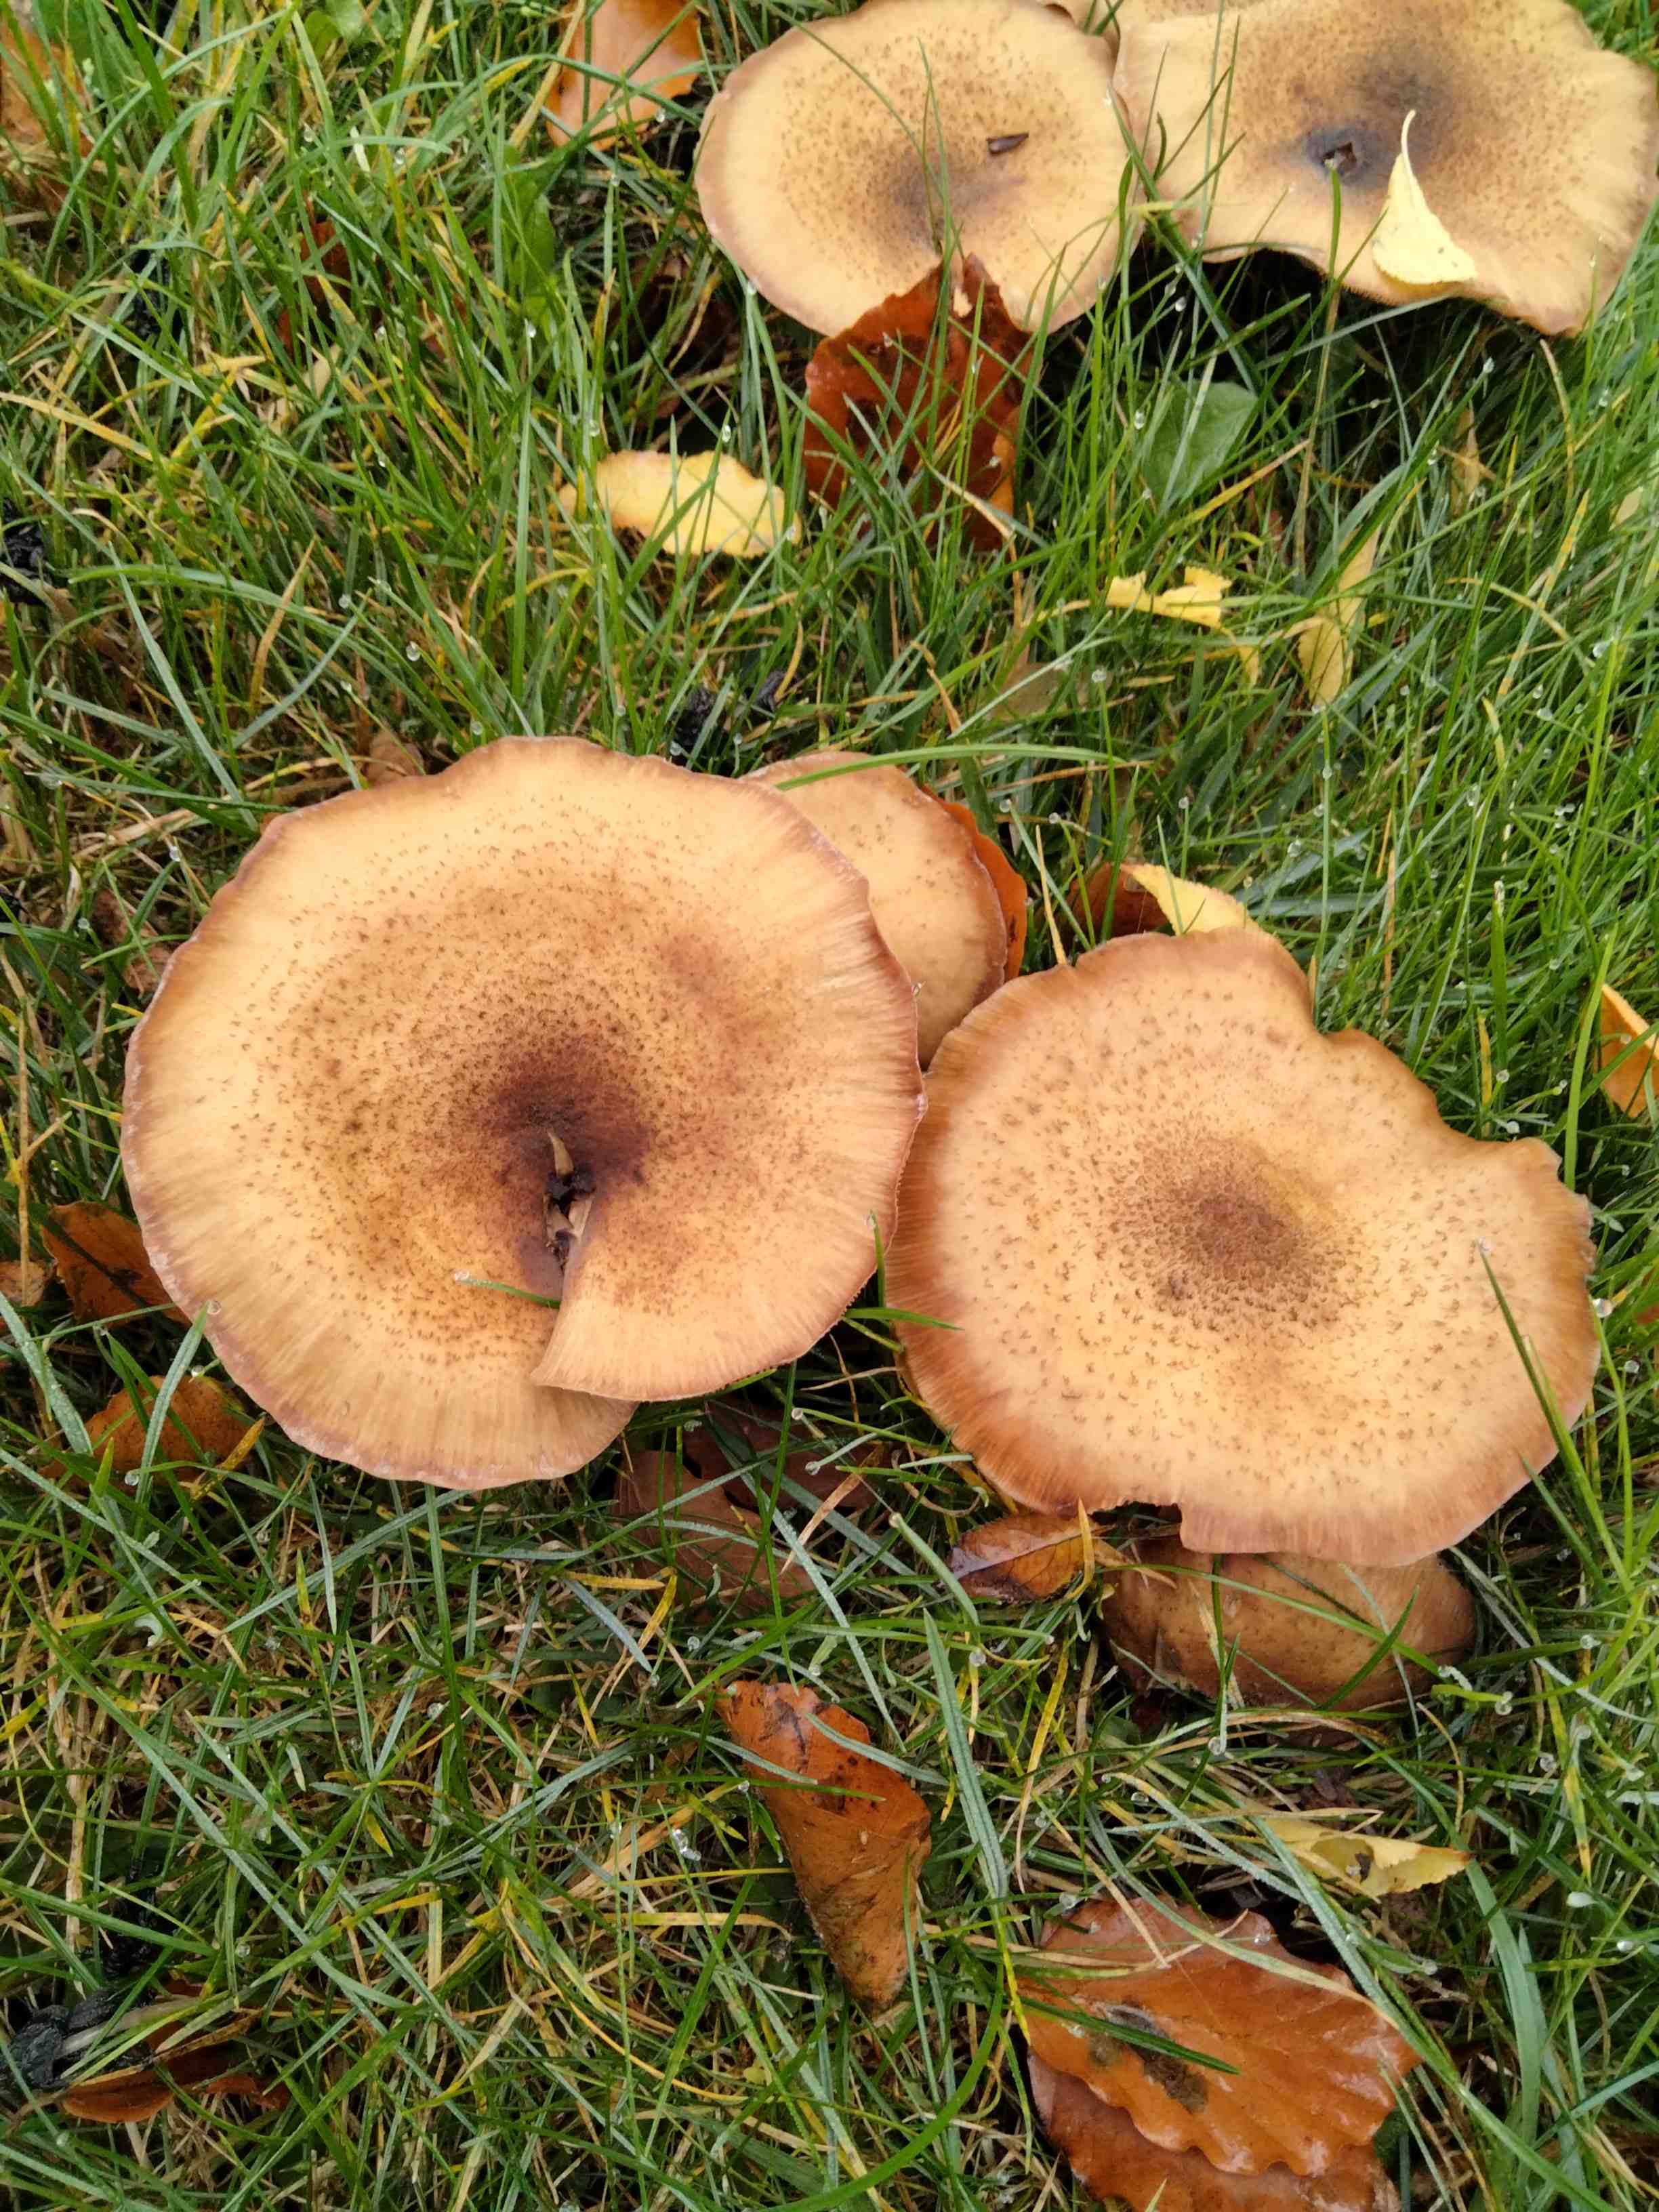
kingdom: Fungi
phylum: Basidiomycota
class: Agaricomycetes
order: Agaricales
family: Physalacriaceae
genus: Armillaria
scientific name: Armillaria
